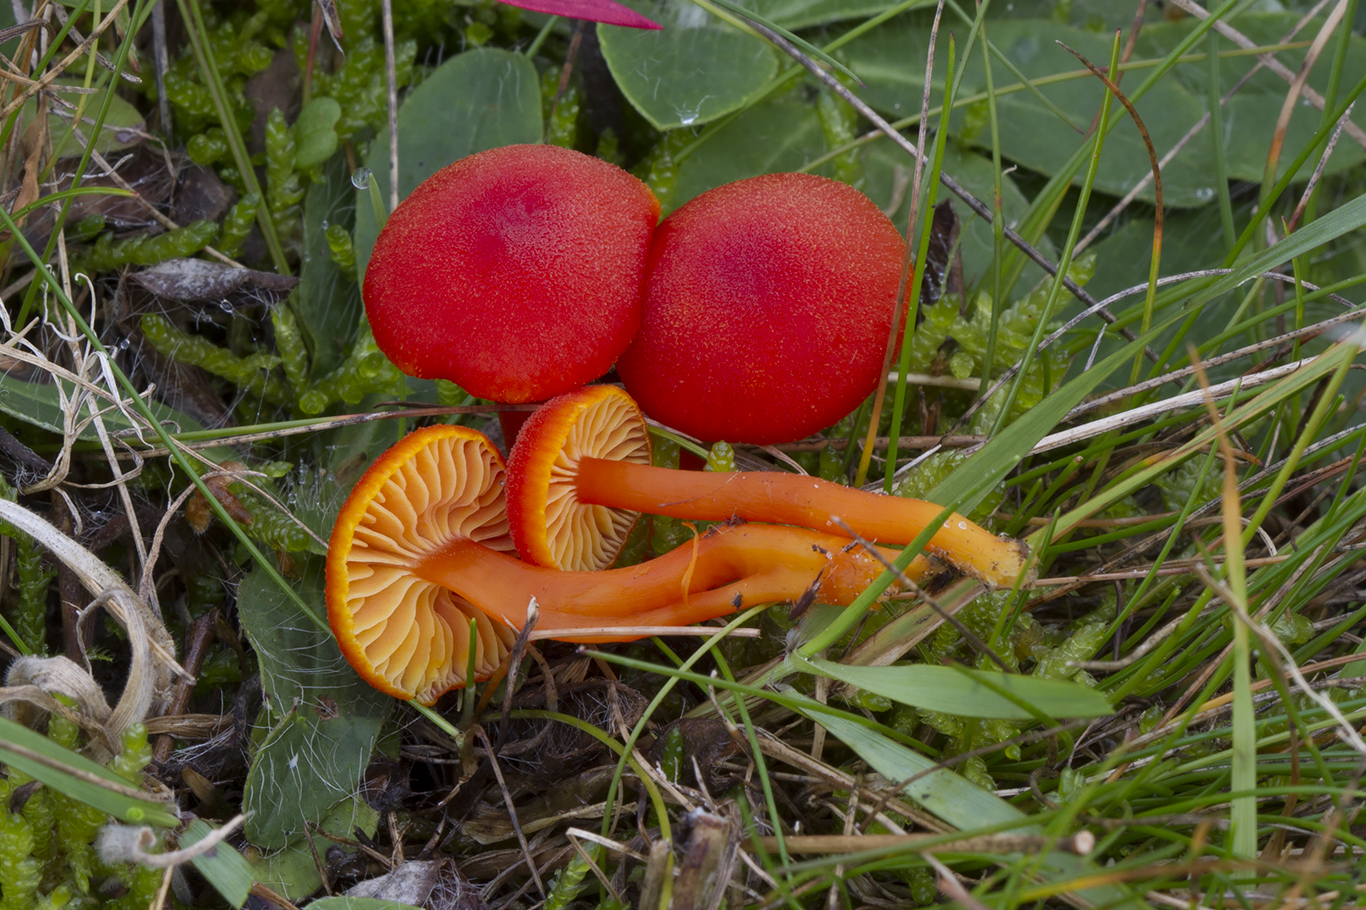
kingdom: Fungi
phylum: Basidiomycota
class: Agaricomycetes
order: Agaricales
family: Hygrophoraceae
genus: Hygrocybe
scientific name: Hygrocybe miniata
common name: mønje-vokshat
